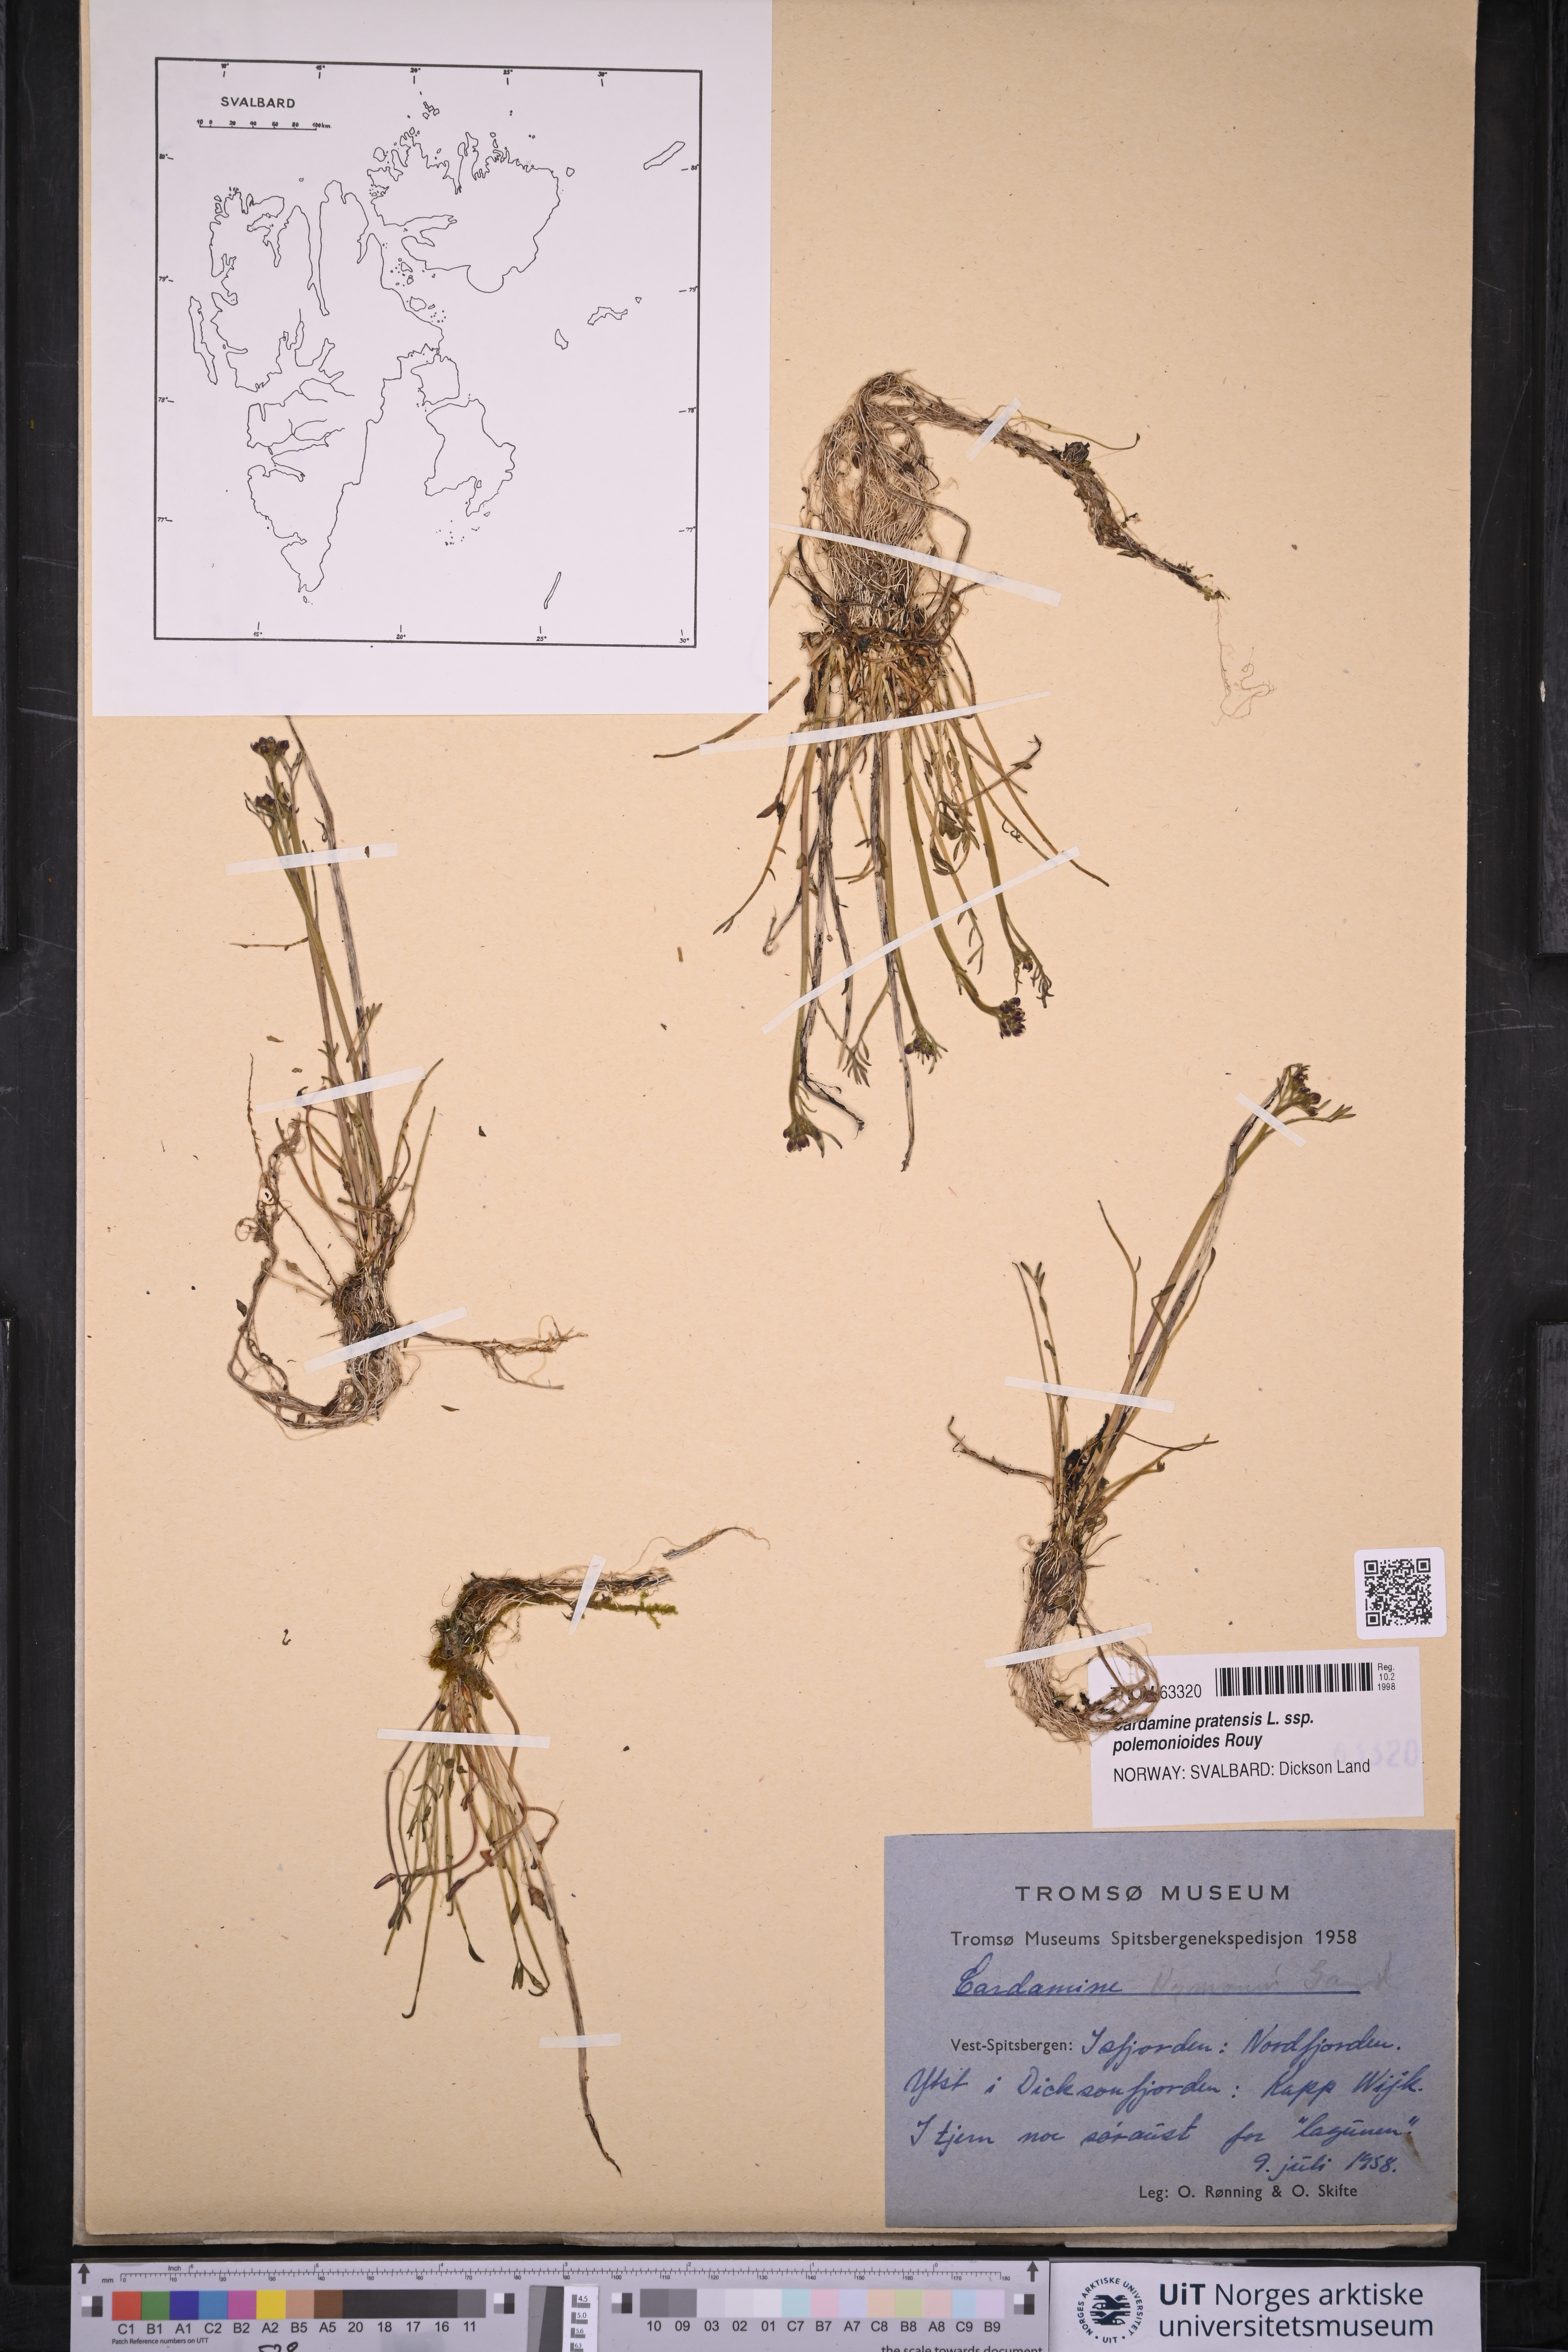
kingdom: Plantae
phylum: Tracheophyta
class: Magnoliopsida
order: Brassicales
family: Brassicaceae
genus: Cardamine
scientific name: Cardamine nymanii
